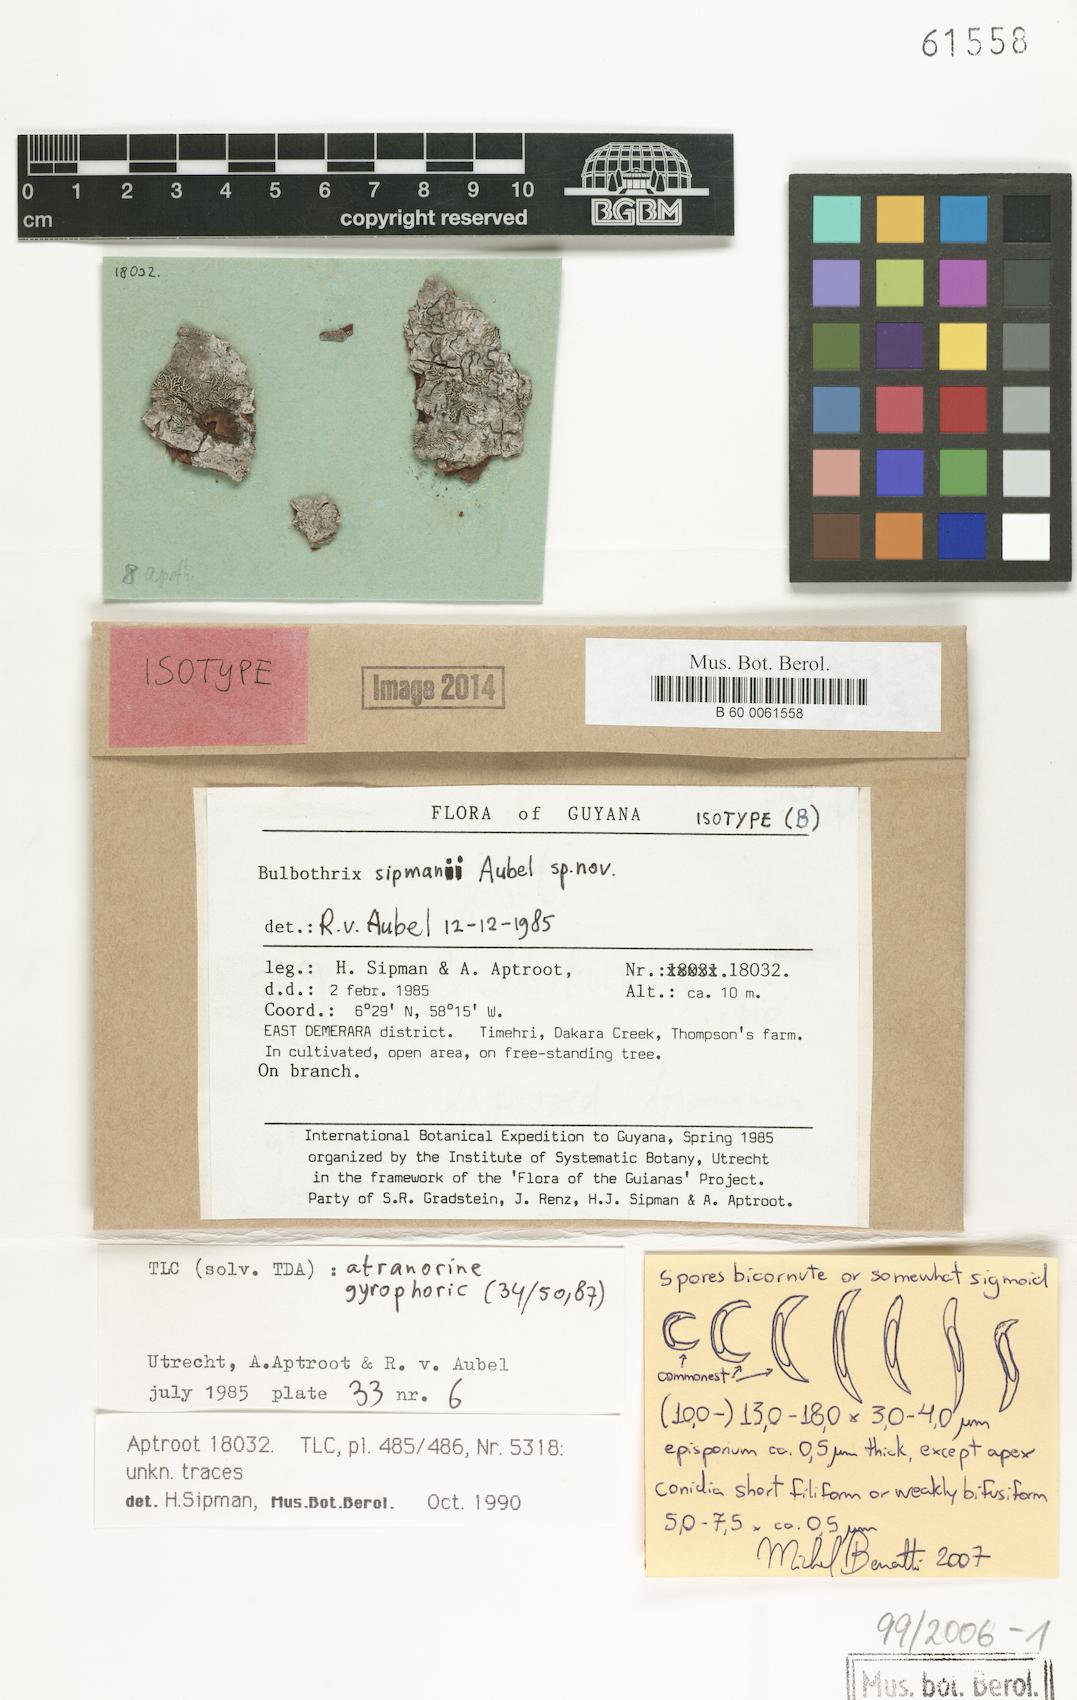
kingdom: Fungi
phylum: Ascomycota
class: Lecanoromycetes
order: Lecanorales
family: Parmeliaceae
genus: Bulbothrix
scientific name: Bulbothrix sipmanii
